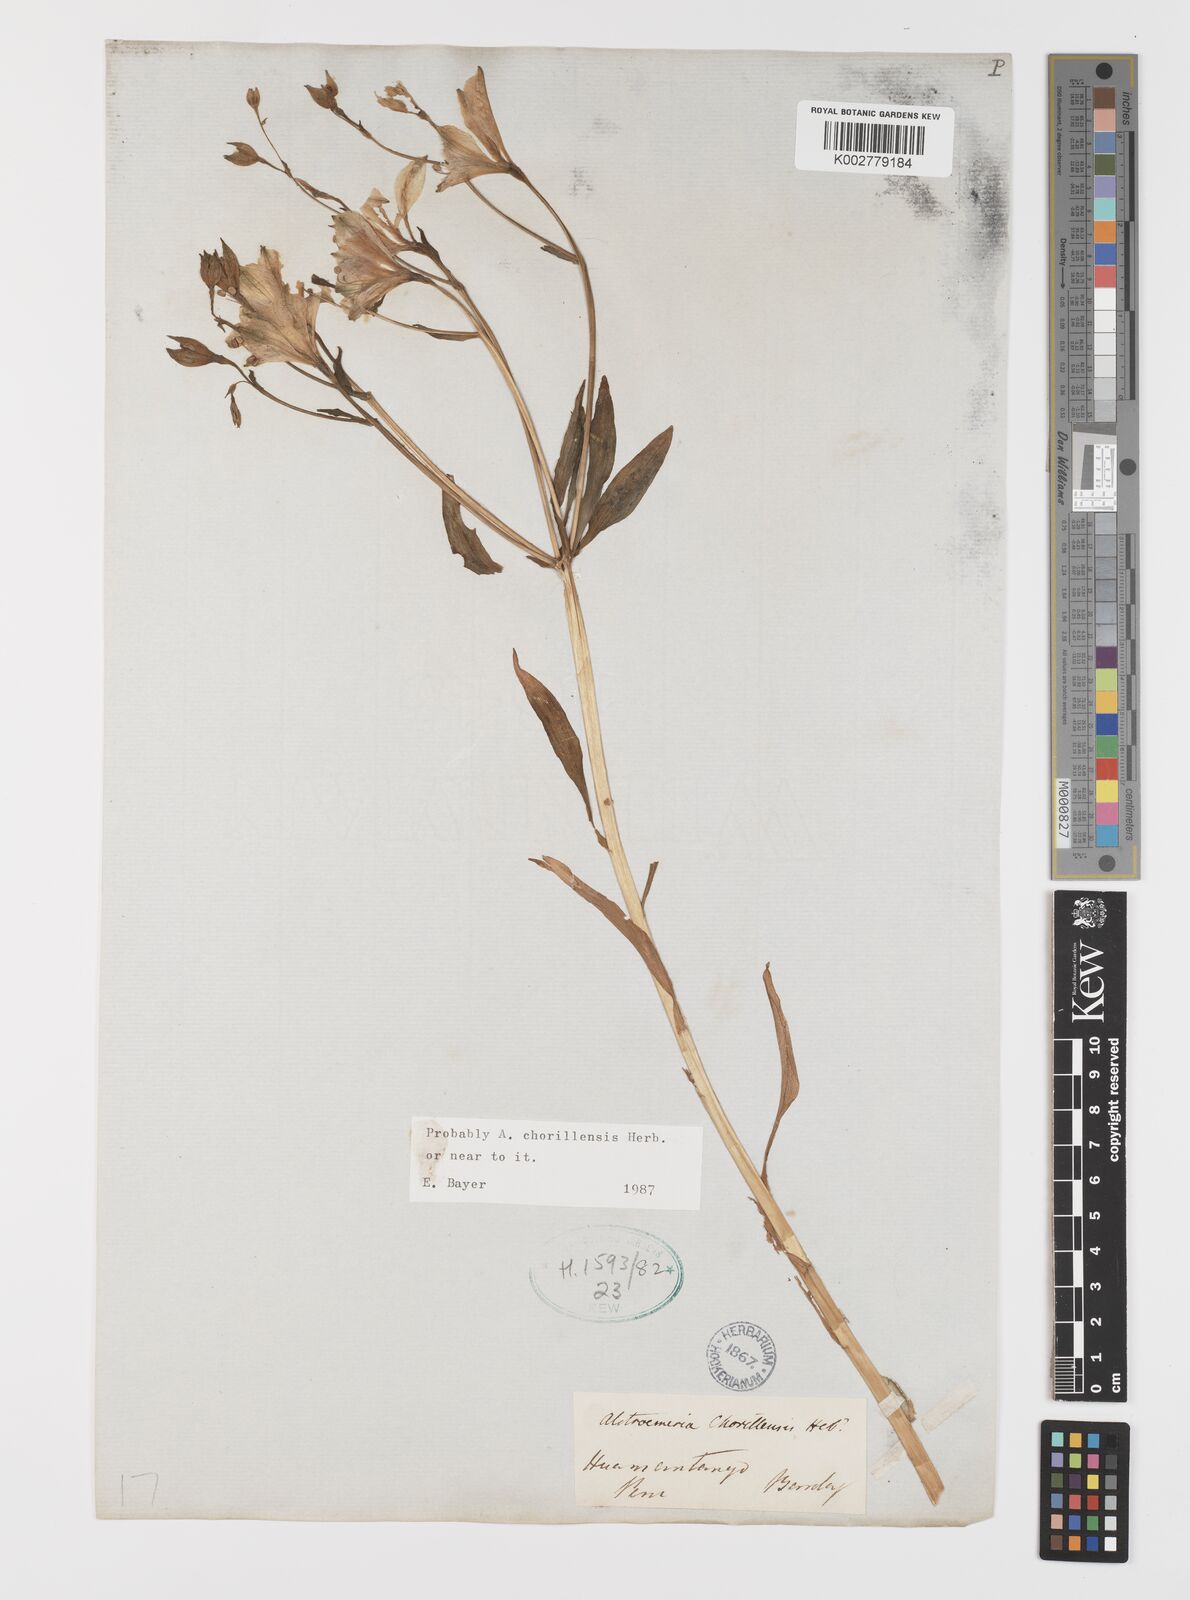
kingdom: Plantae
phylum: Tracheophyta
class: Liliopsida
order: Liliales
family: Alstroemeriaceae
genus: Alstroemeria
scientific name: Alstroemeria presliana
